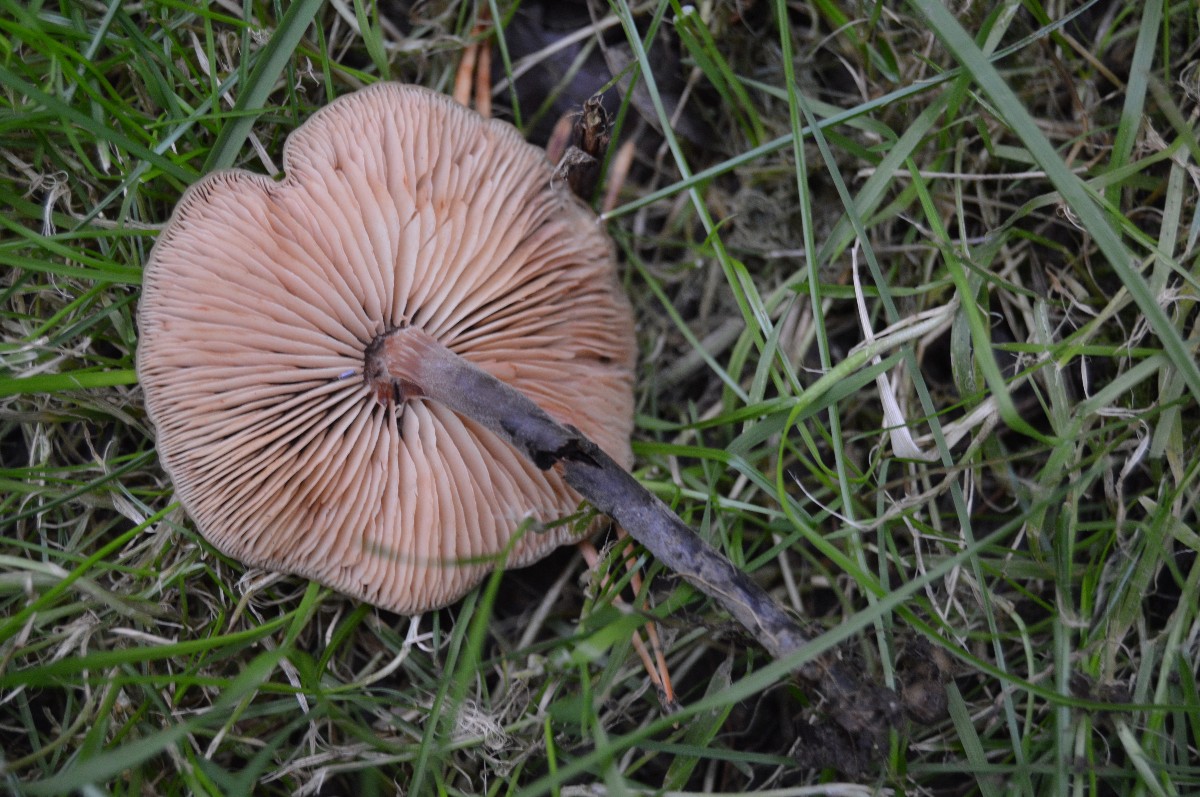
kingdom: Fungi
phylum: Basidiomycota
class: Agaricomycetes
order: Agaricales
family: Macrocystidiaceae
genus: Macrocystidia
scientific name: Macrocystidia cucumis
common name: agurkehat
